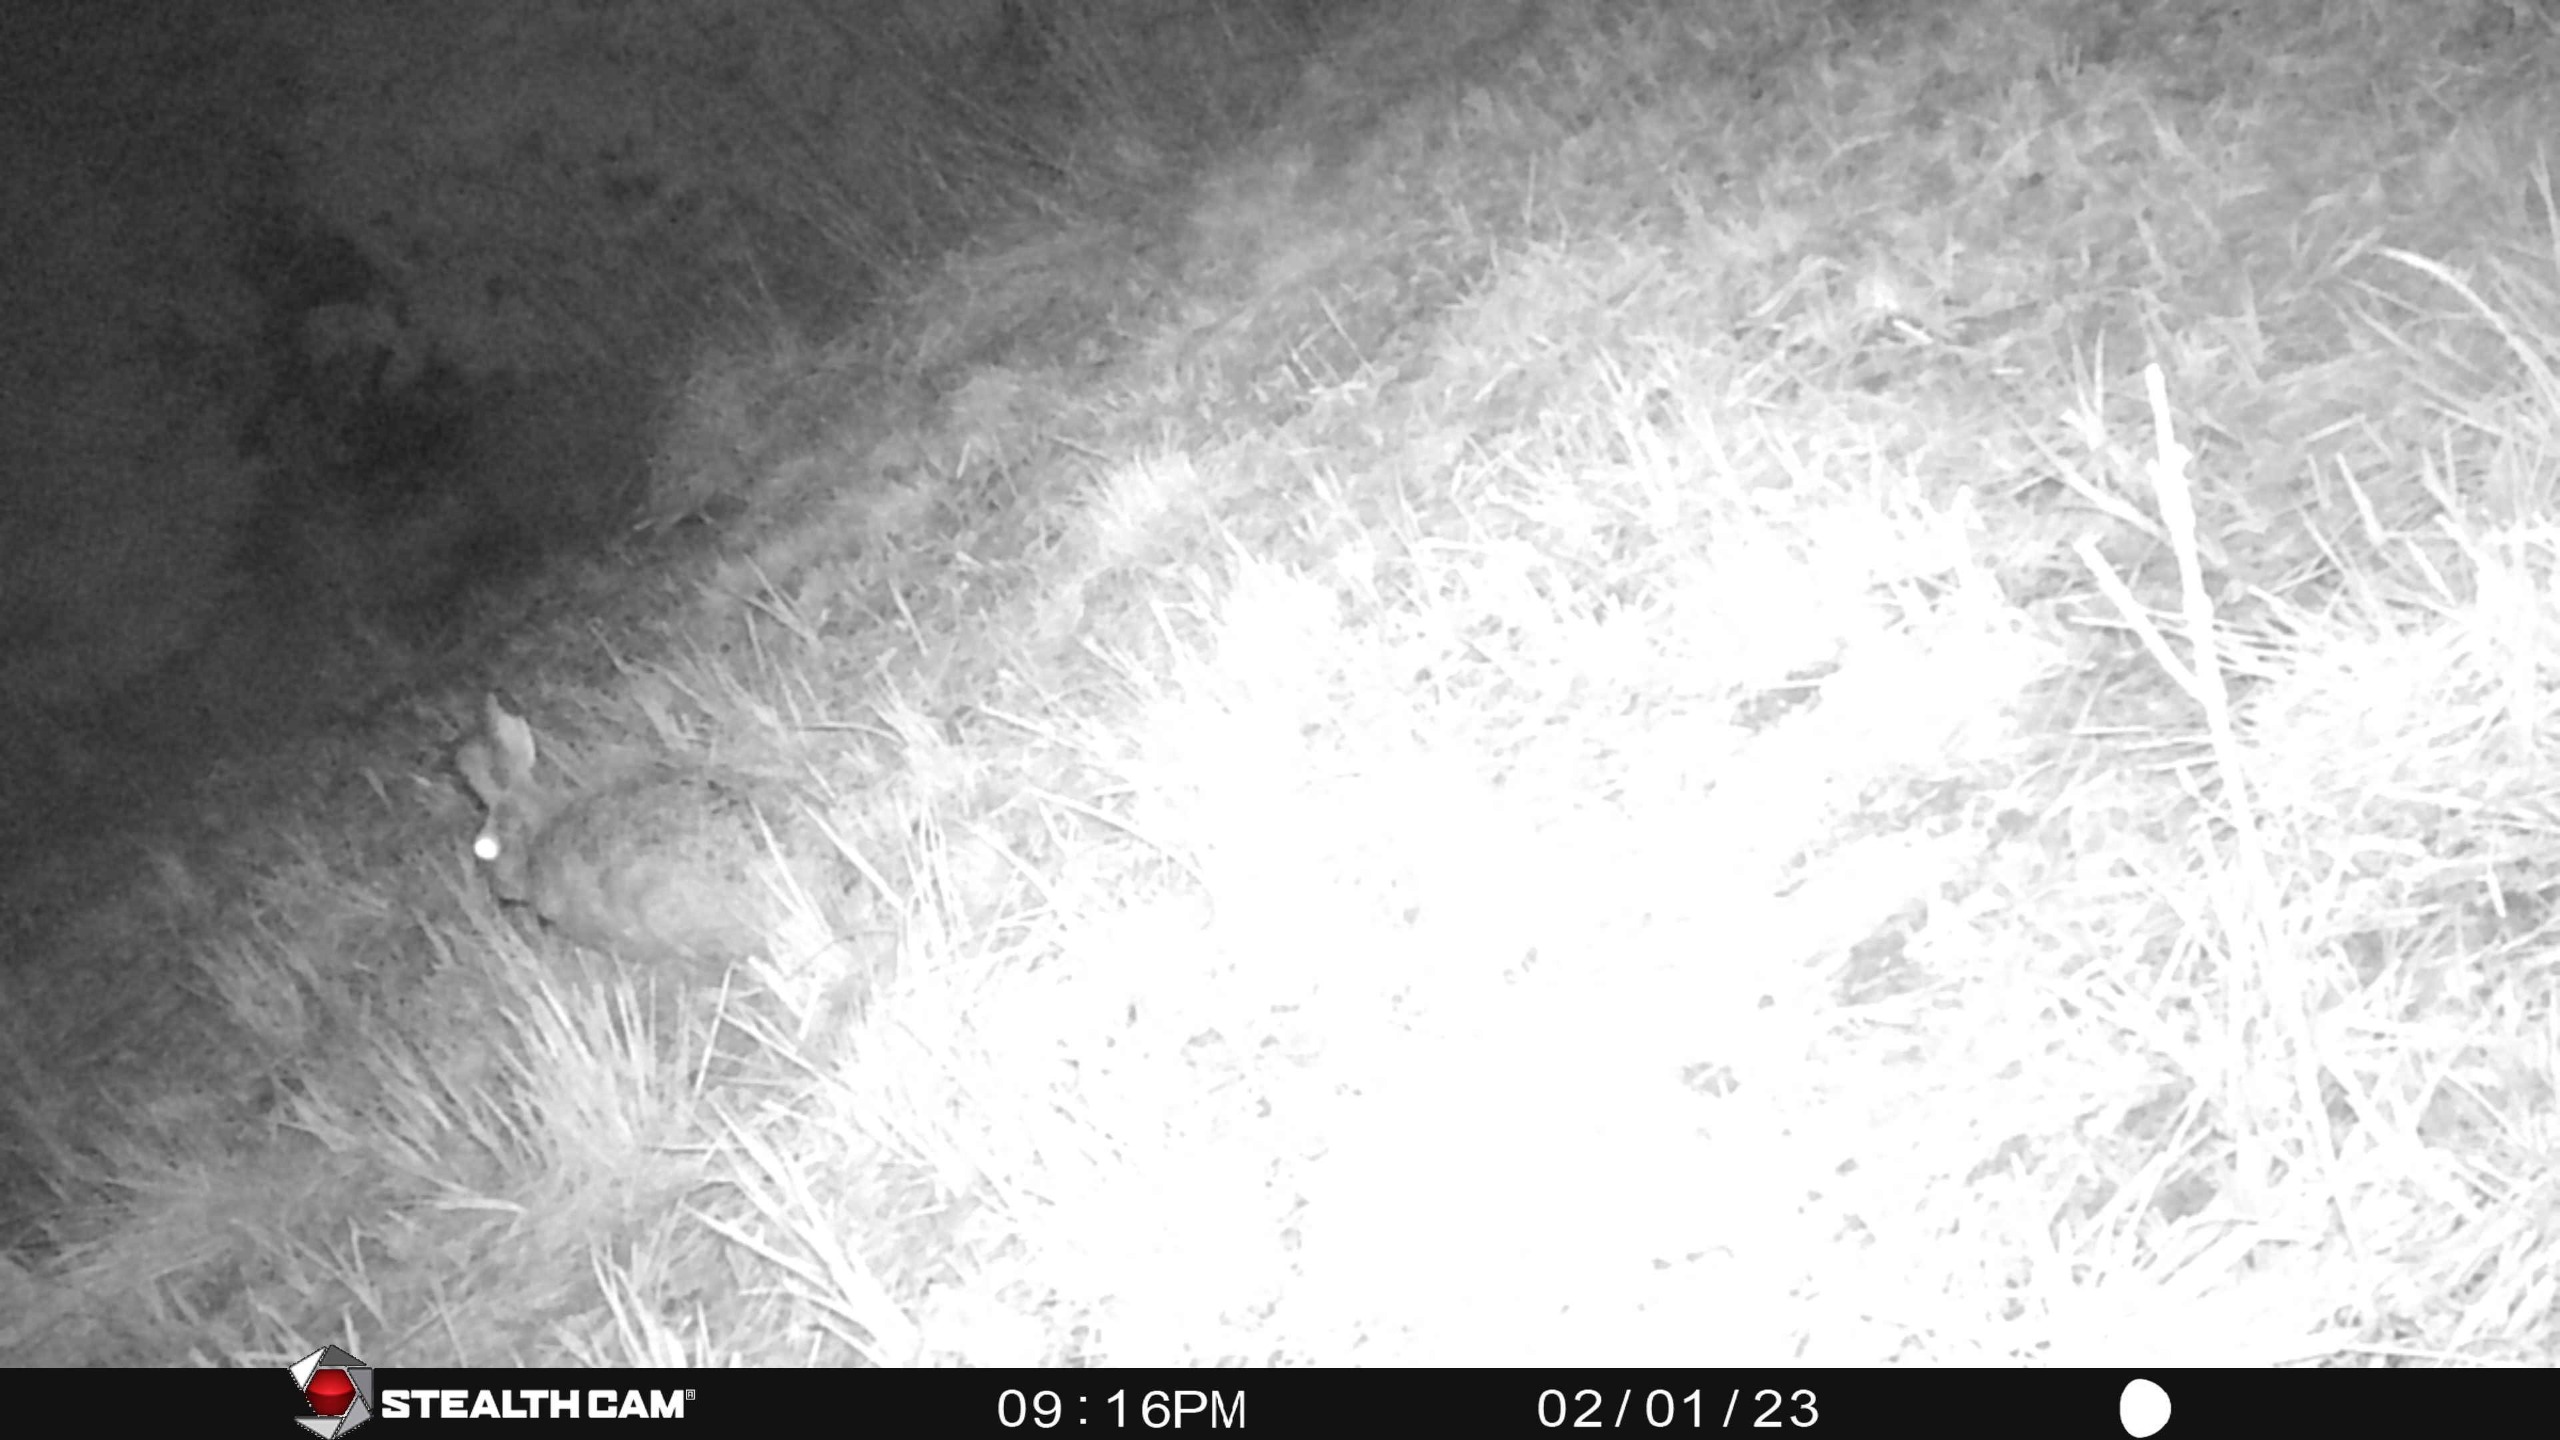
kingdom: Animalia
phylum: Chordata
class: Mammalia
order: Lagomorpha
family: Leporidae
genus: Lepus
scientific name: Lepus europaeus
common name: Hare
